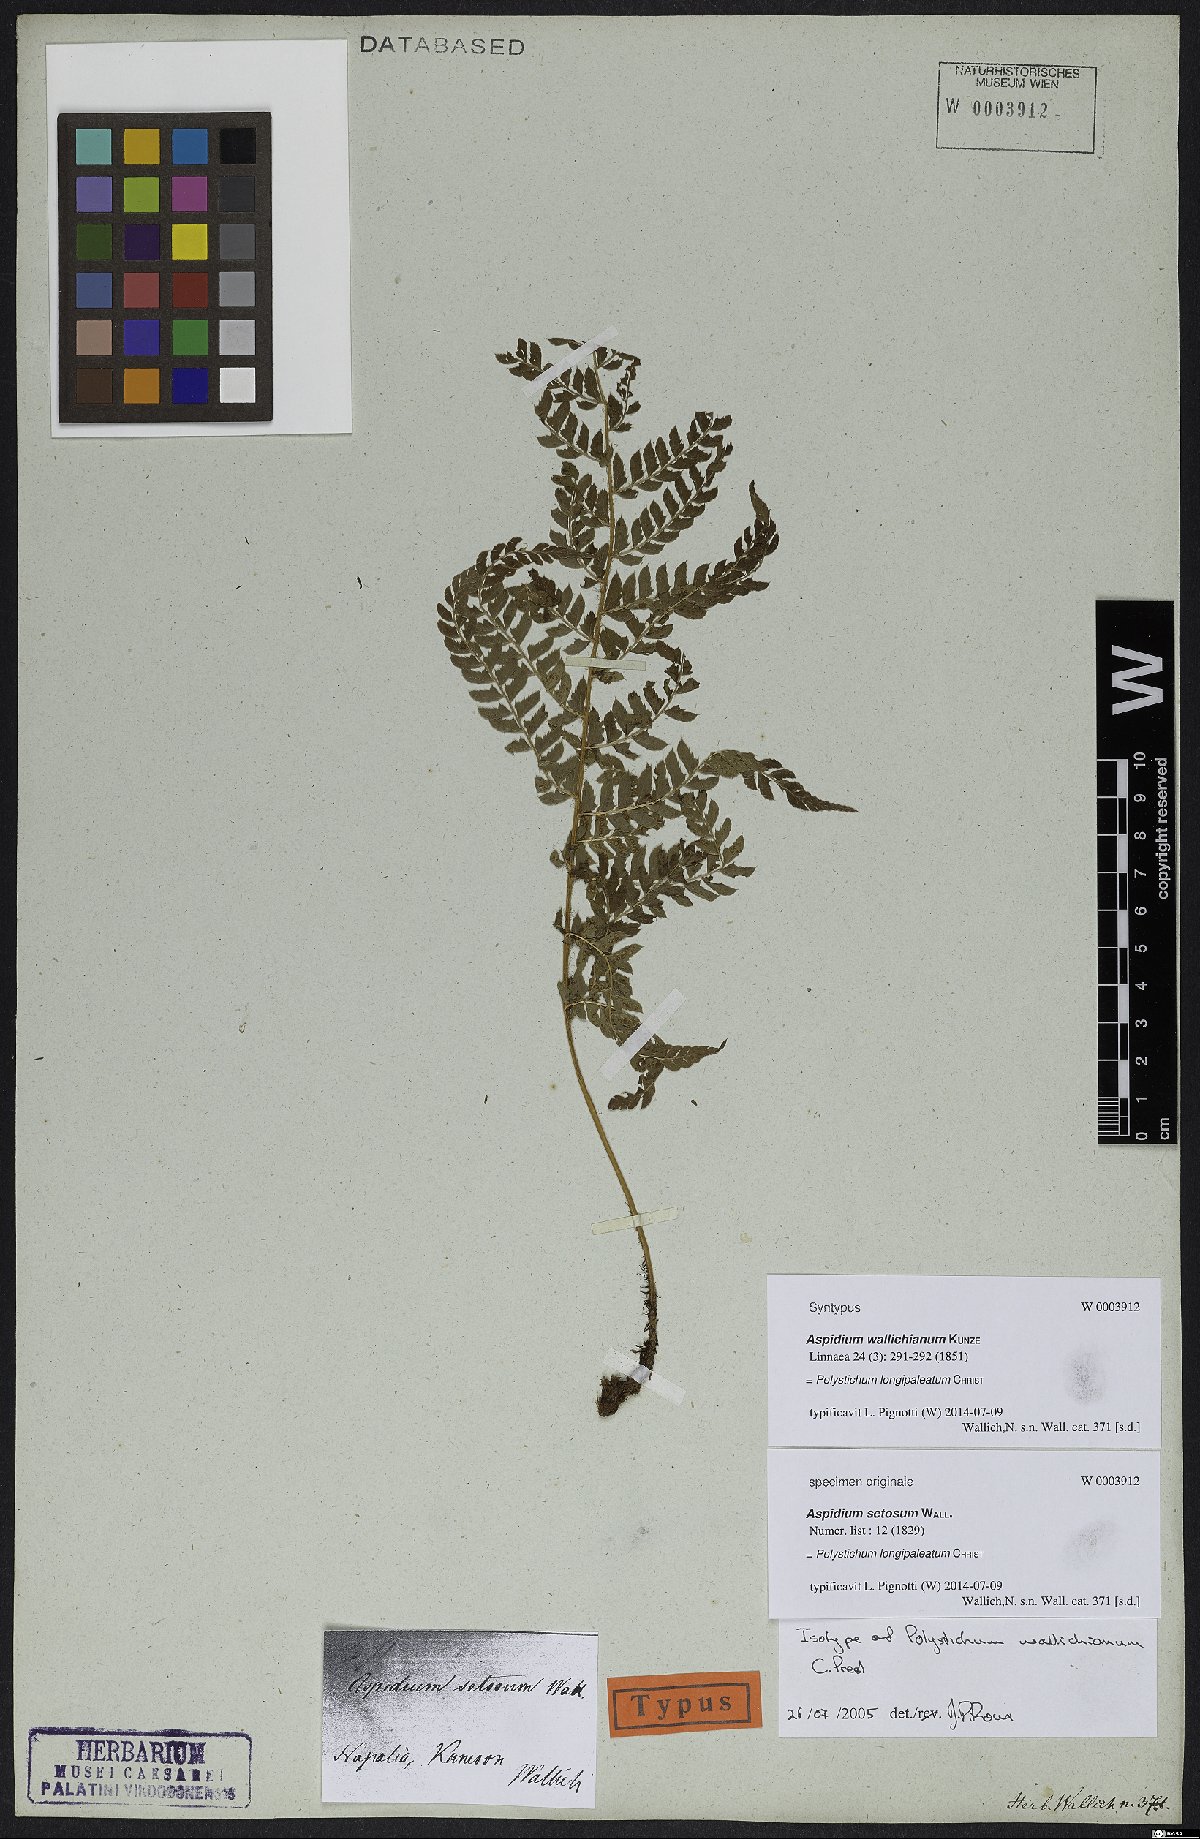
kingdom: Plantae
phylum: Tracheophyta
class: Polypodiopsida
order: Polypodiales
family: Dryopteridaceae
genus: Polystichum
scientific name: Polystichum longipaleatum
